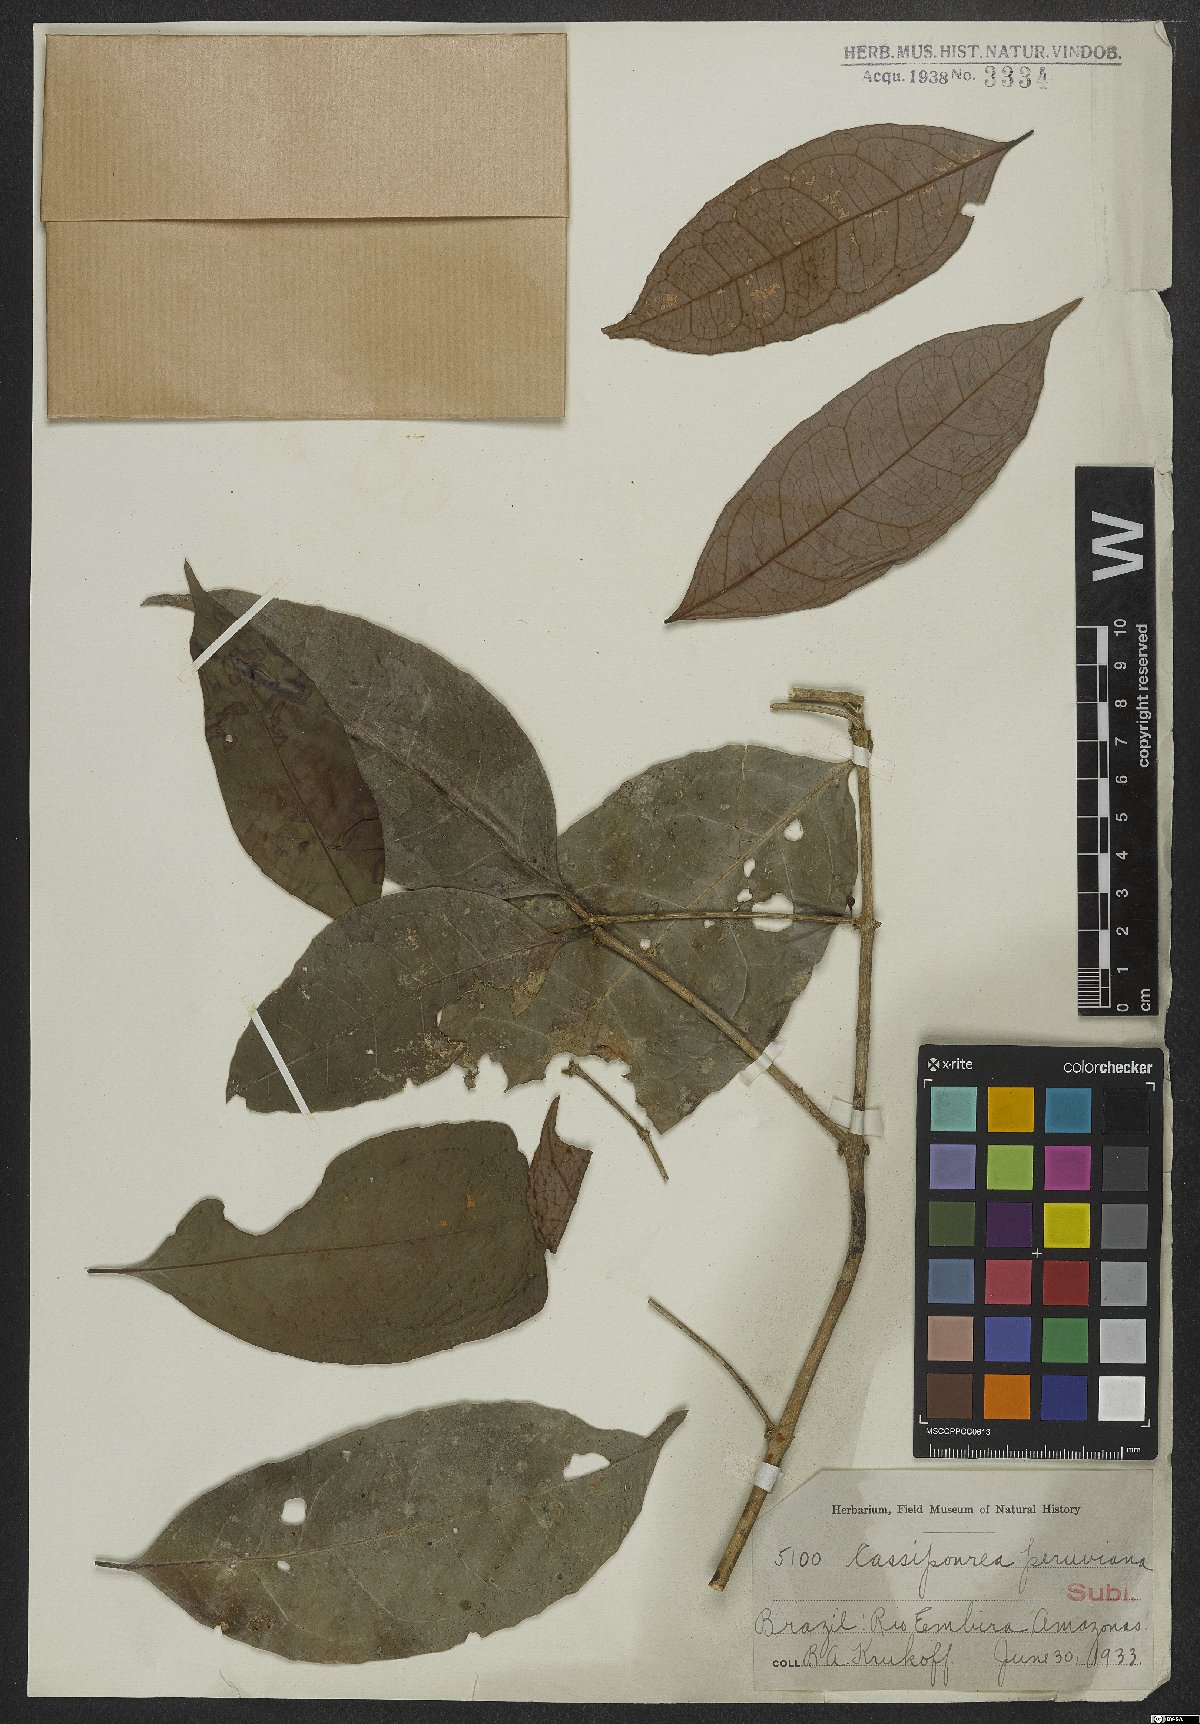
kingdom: Plantae
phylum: Tracheophyta
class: Magnoliopsida
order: Malpighiales
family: Rhizophoraceae
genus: Cassipourea
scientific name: Cassipourea peruviana
